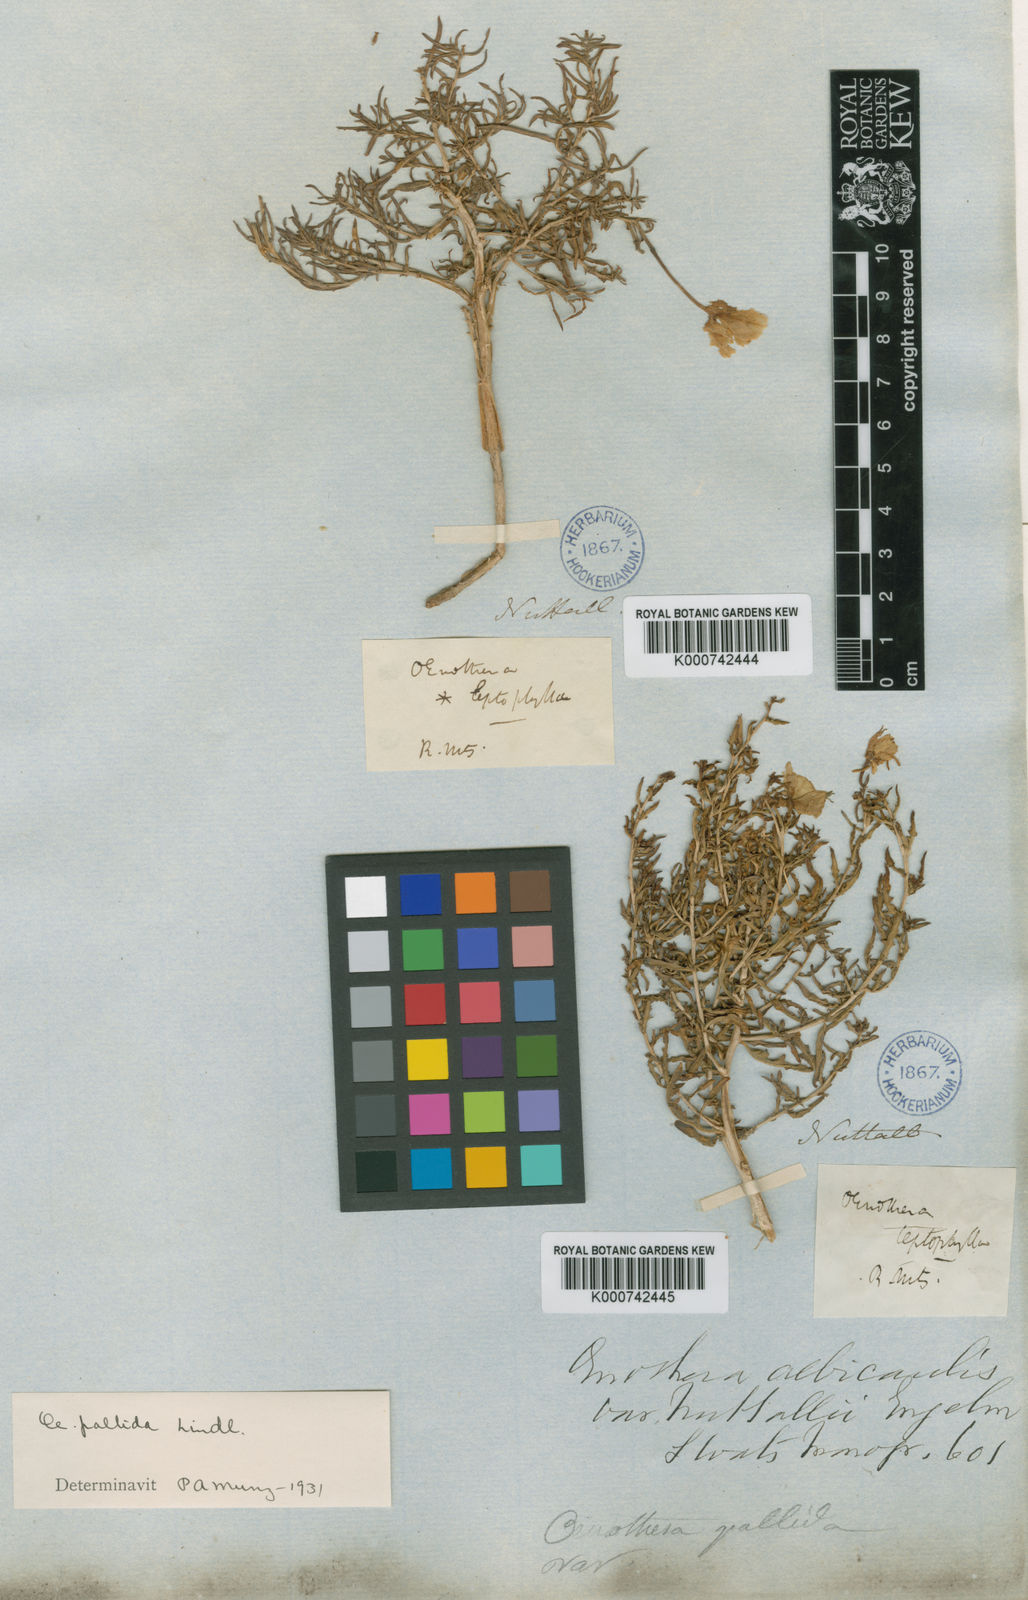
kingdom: Plantae
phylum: Tracheophyta
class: Magnoliopsida
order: Myrtales
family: Onagraceae
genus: Oenothera
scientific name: Oenothera pallida
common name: Pale evening-primrose
